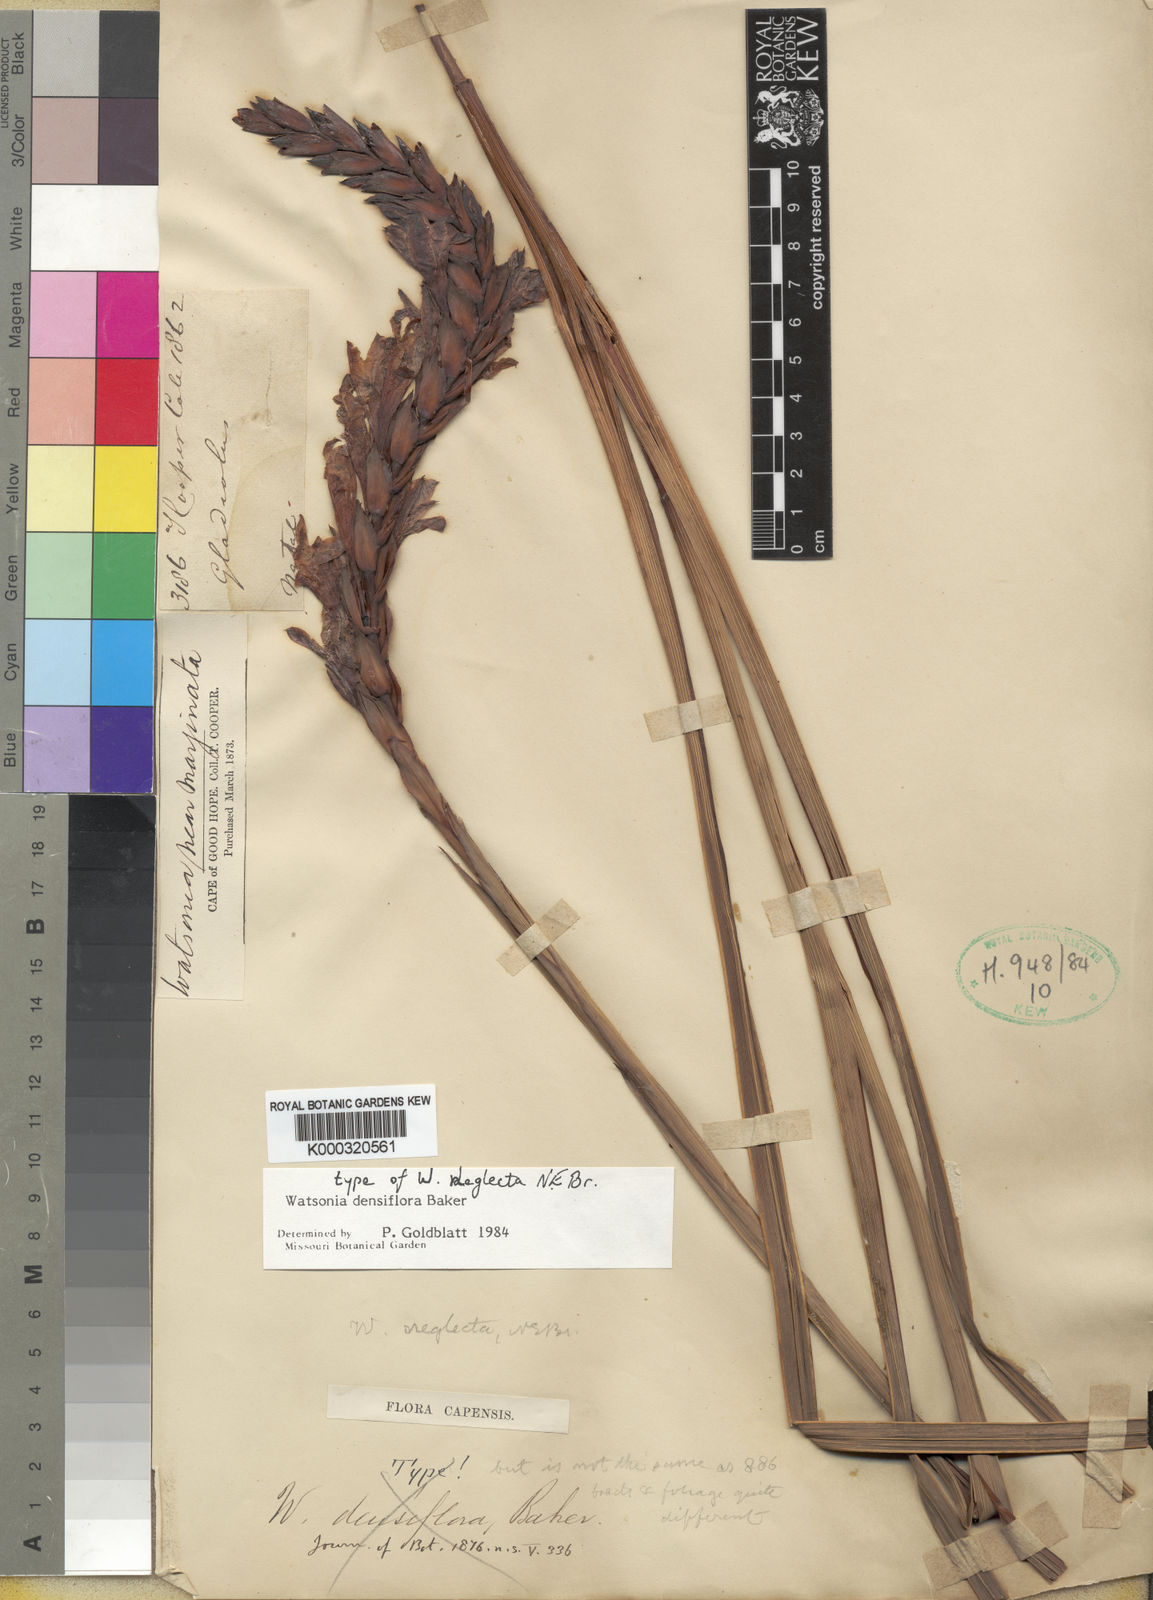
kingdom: Plantae
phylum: Tracheophyta
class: Liliopsida
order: Asparagales
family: Iridaceae
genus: Watsonia
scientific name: Watsonia densiflora
